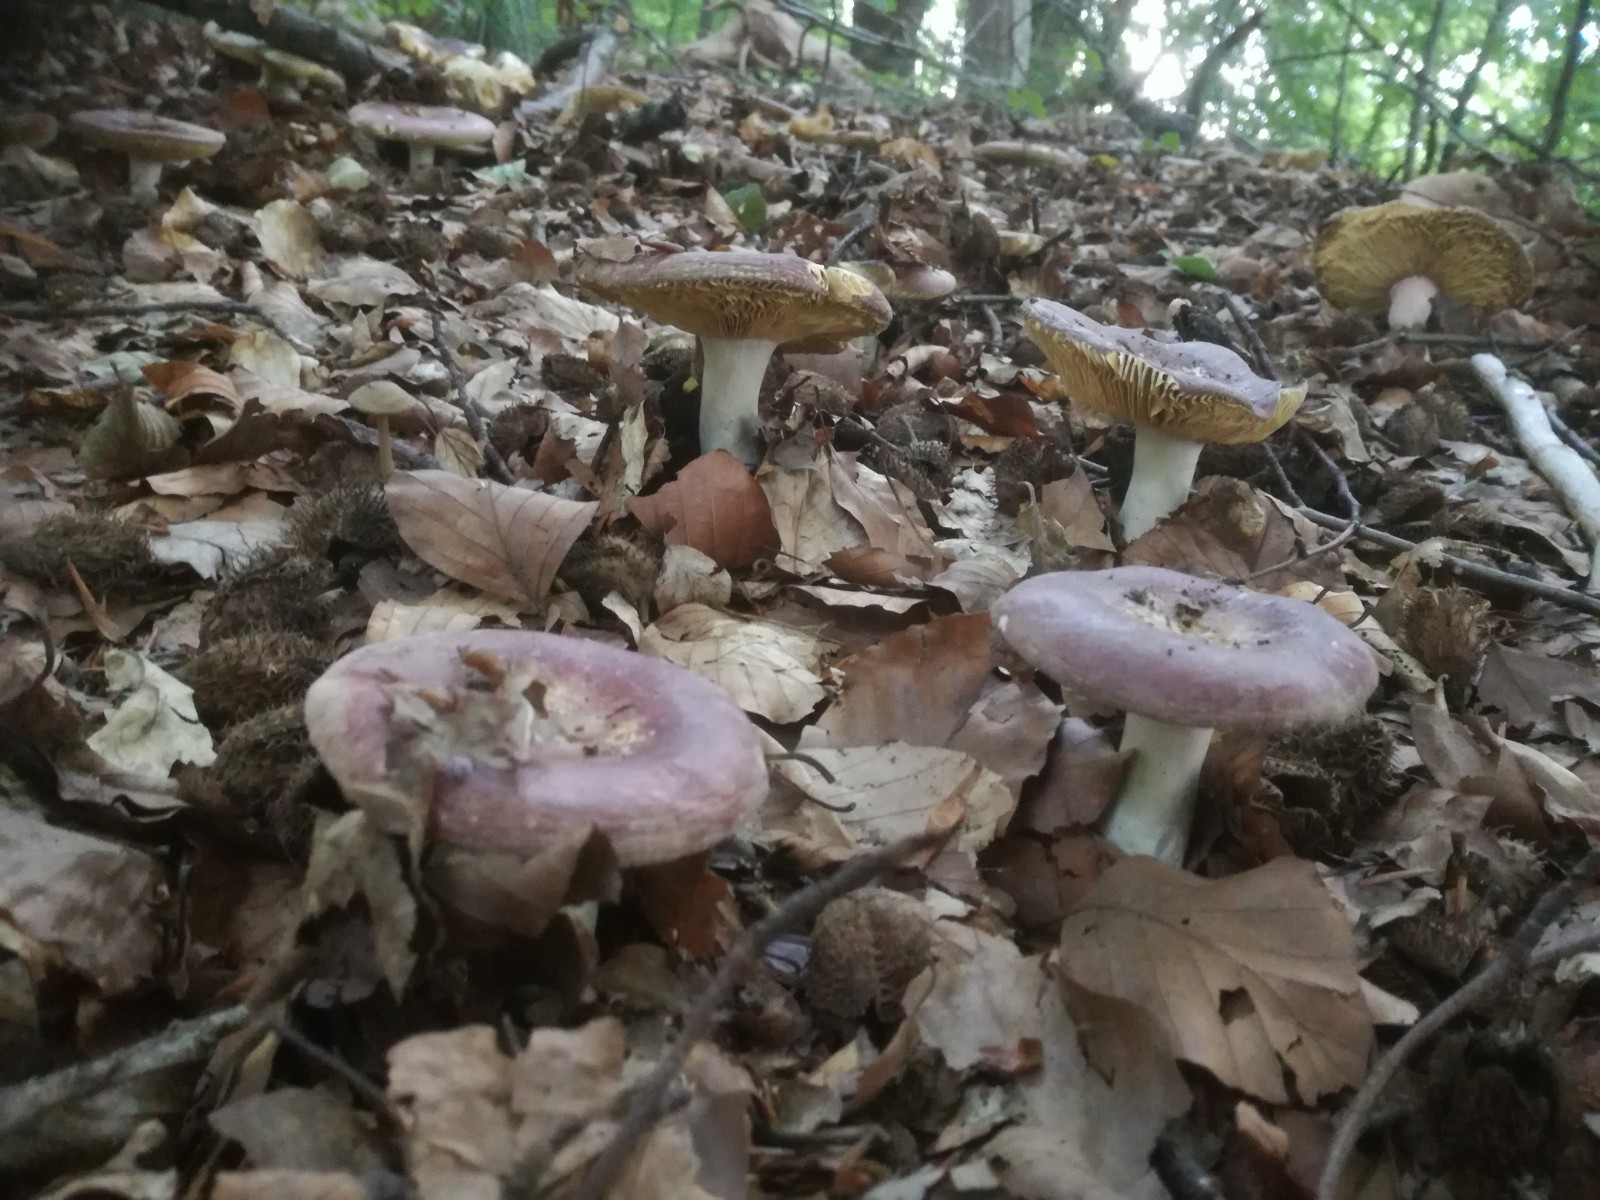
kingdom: Fungi
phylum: Basidiomycota
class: Agaricomycetes
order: Russulales
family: Russulaceae
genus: Russula
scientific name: Russula olivacea
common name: stor skørhat
